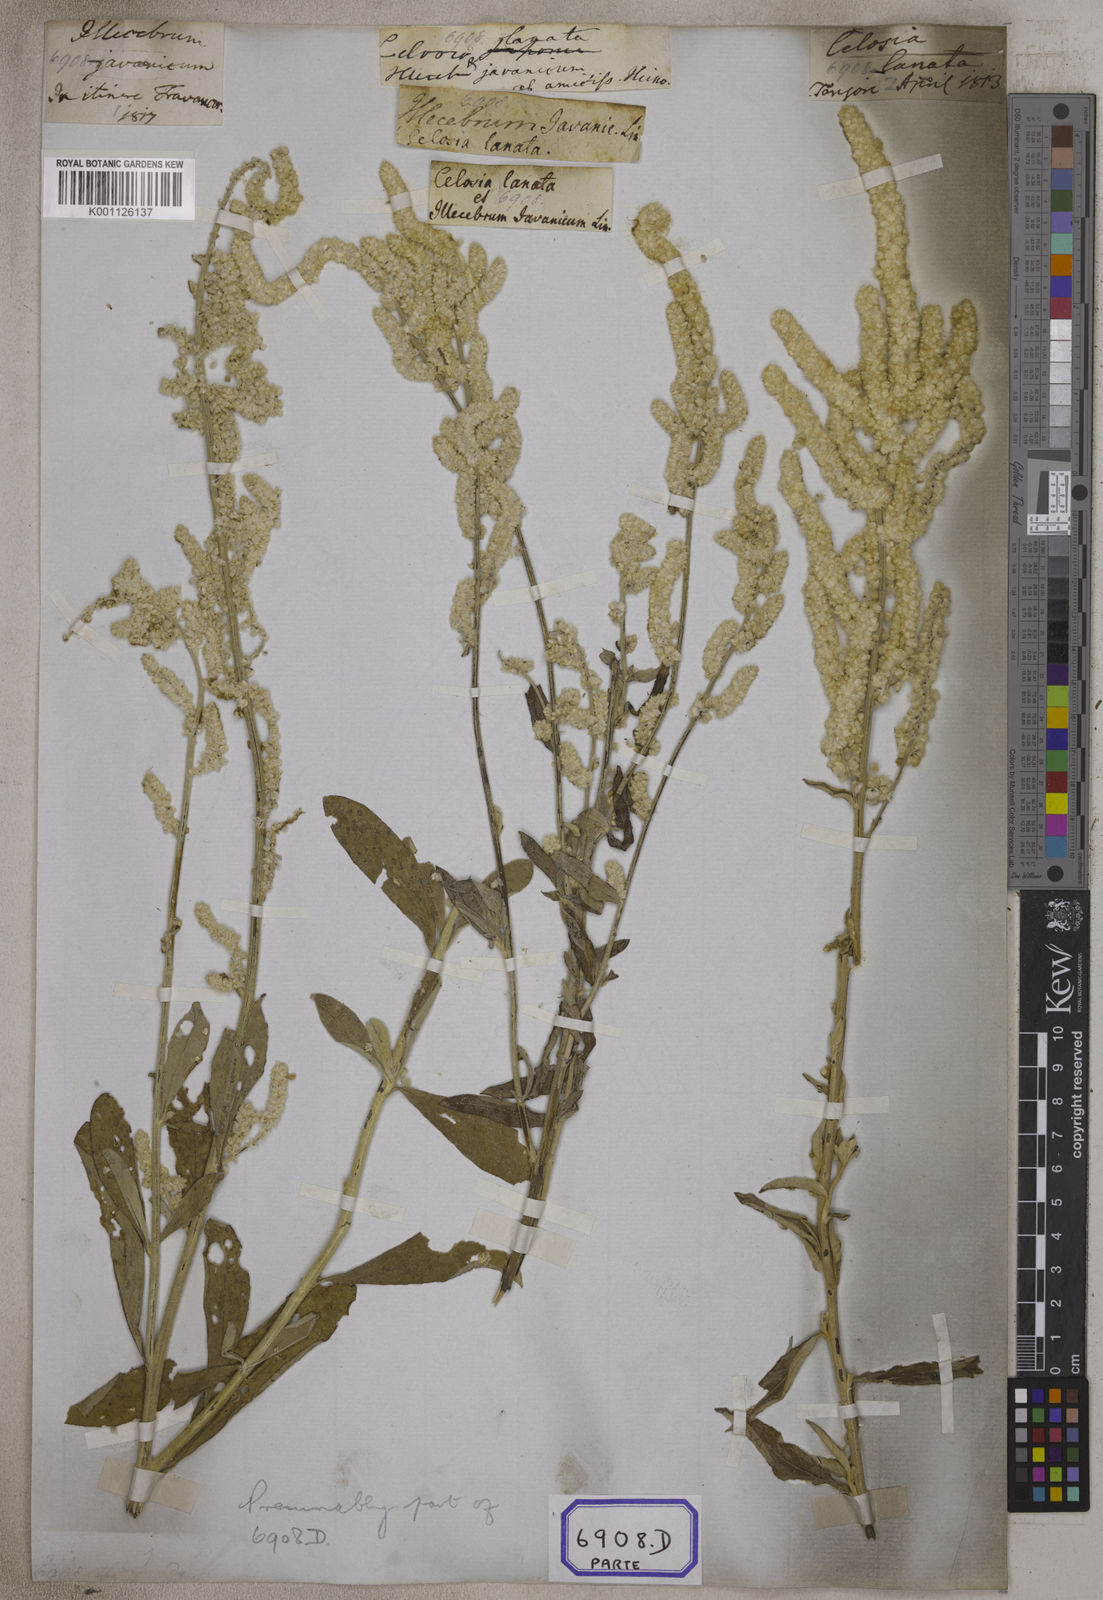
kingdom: Plantae
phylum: Tracheophyta
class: Magnoliopsida
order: Caryophyllales
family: Amaranthaceae
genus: Aerva
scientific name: Aerva
